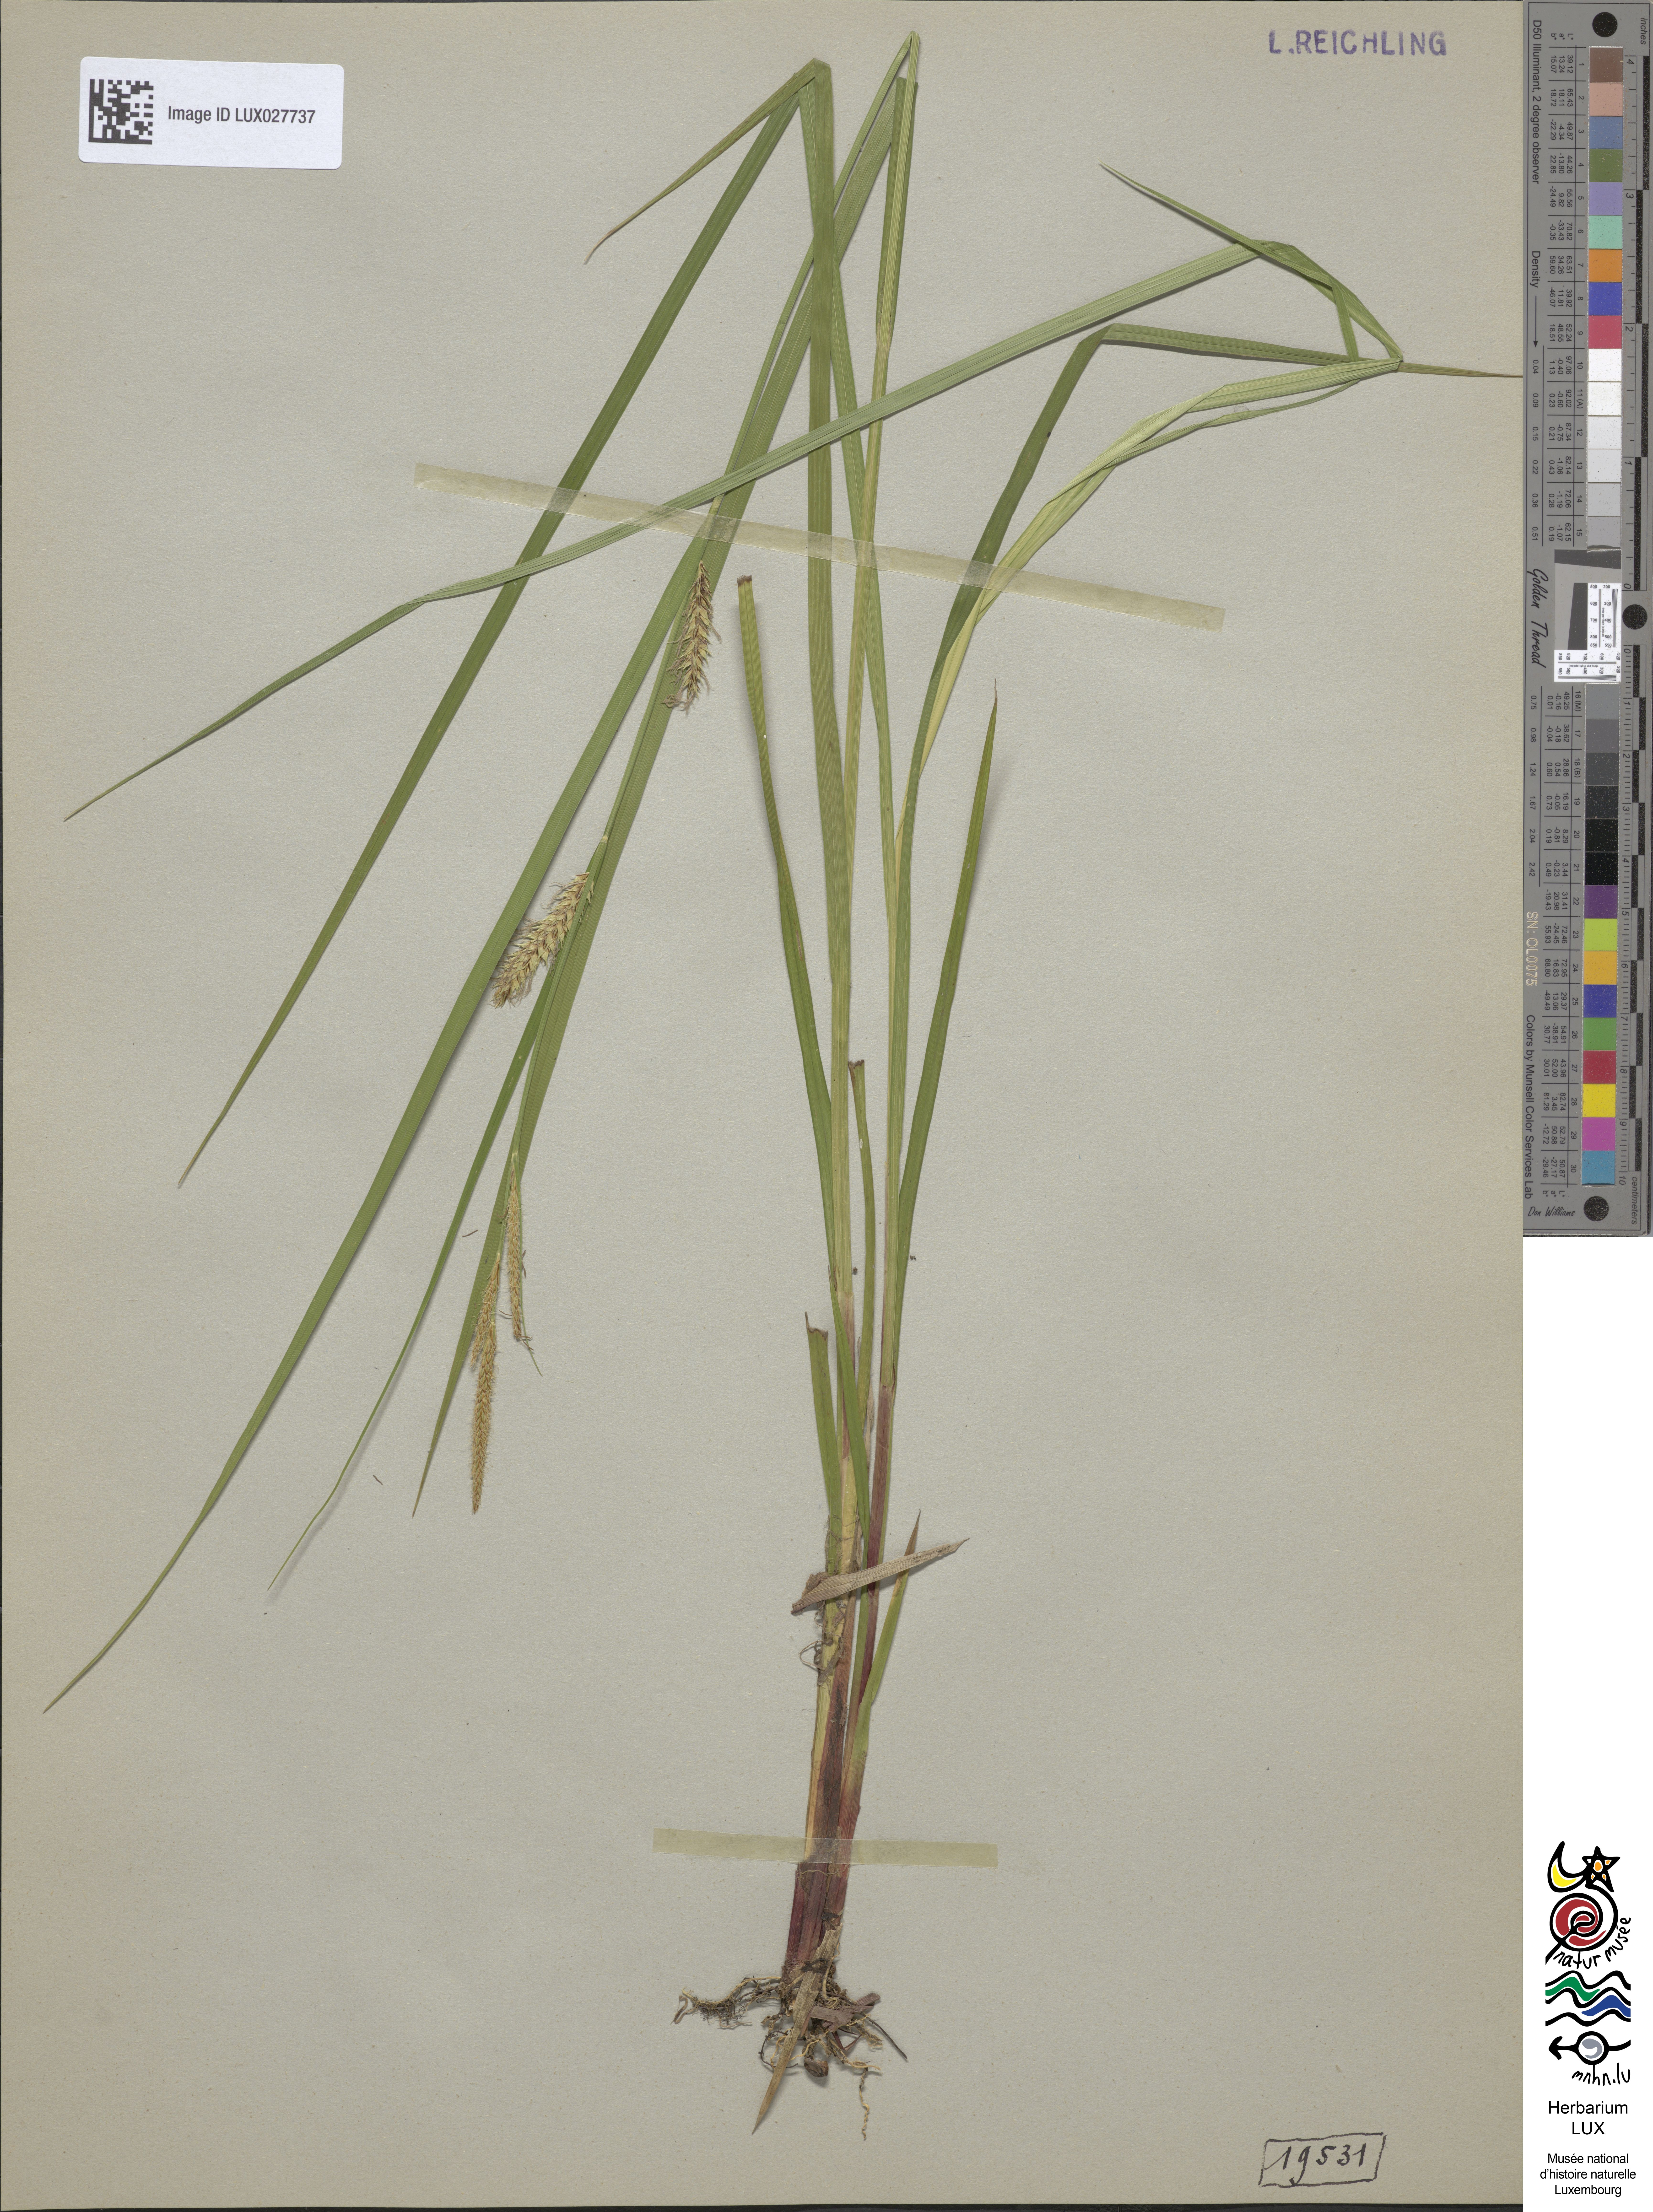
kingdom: Plantae
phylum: Tracheophyta
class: Liliopsida
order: Poales
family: Cyperaceae
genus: Carex
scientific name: Carex vesicaria
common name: Bladder-sedge
